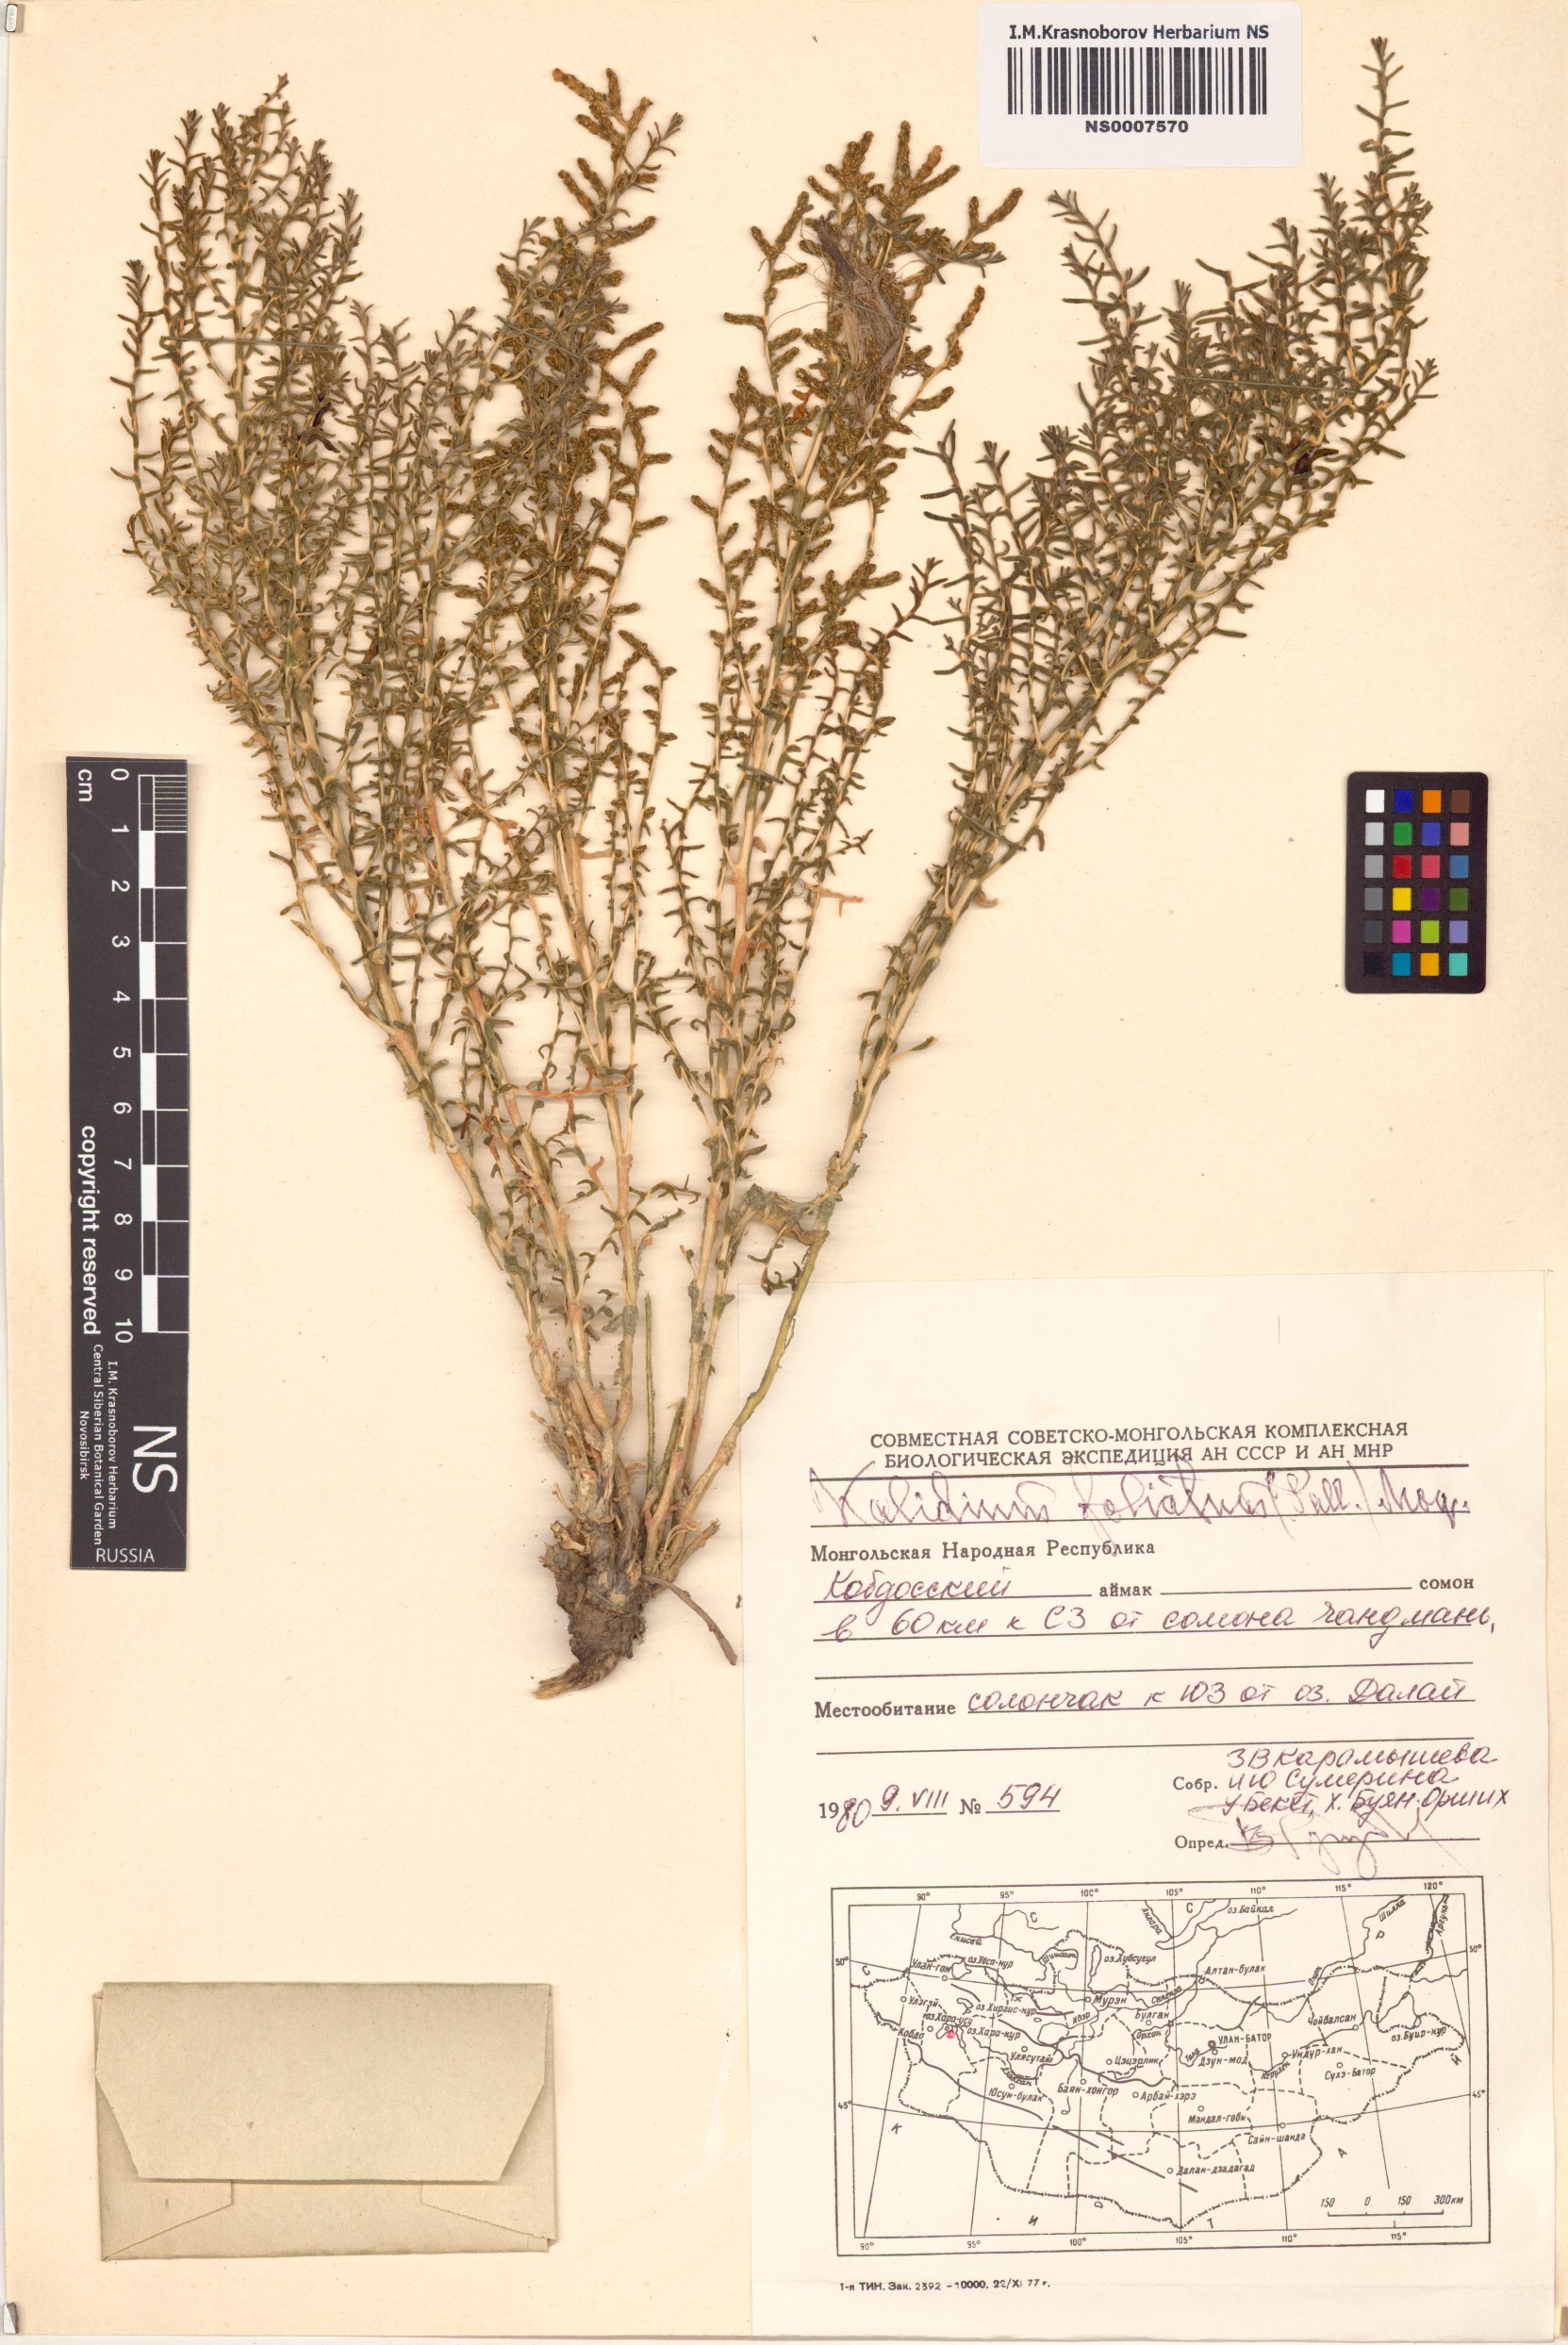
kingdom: Plantae
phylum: Tracheophyta
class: Magnoliopsida
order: Caryophyllales
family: Amaranthaceae
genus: Kalidium
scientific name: Kalidium foliatum
